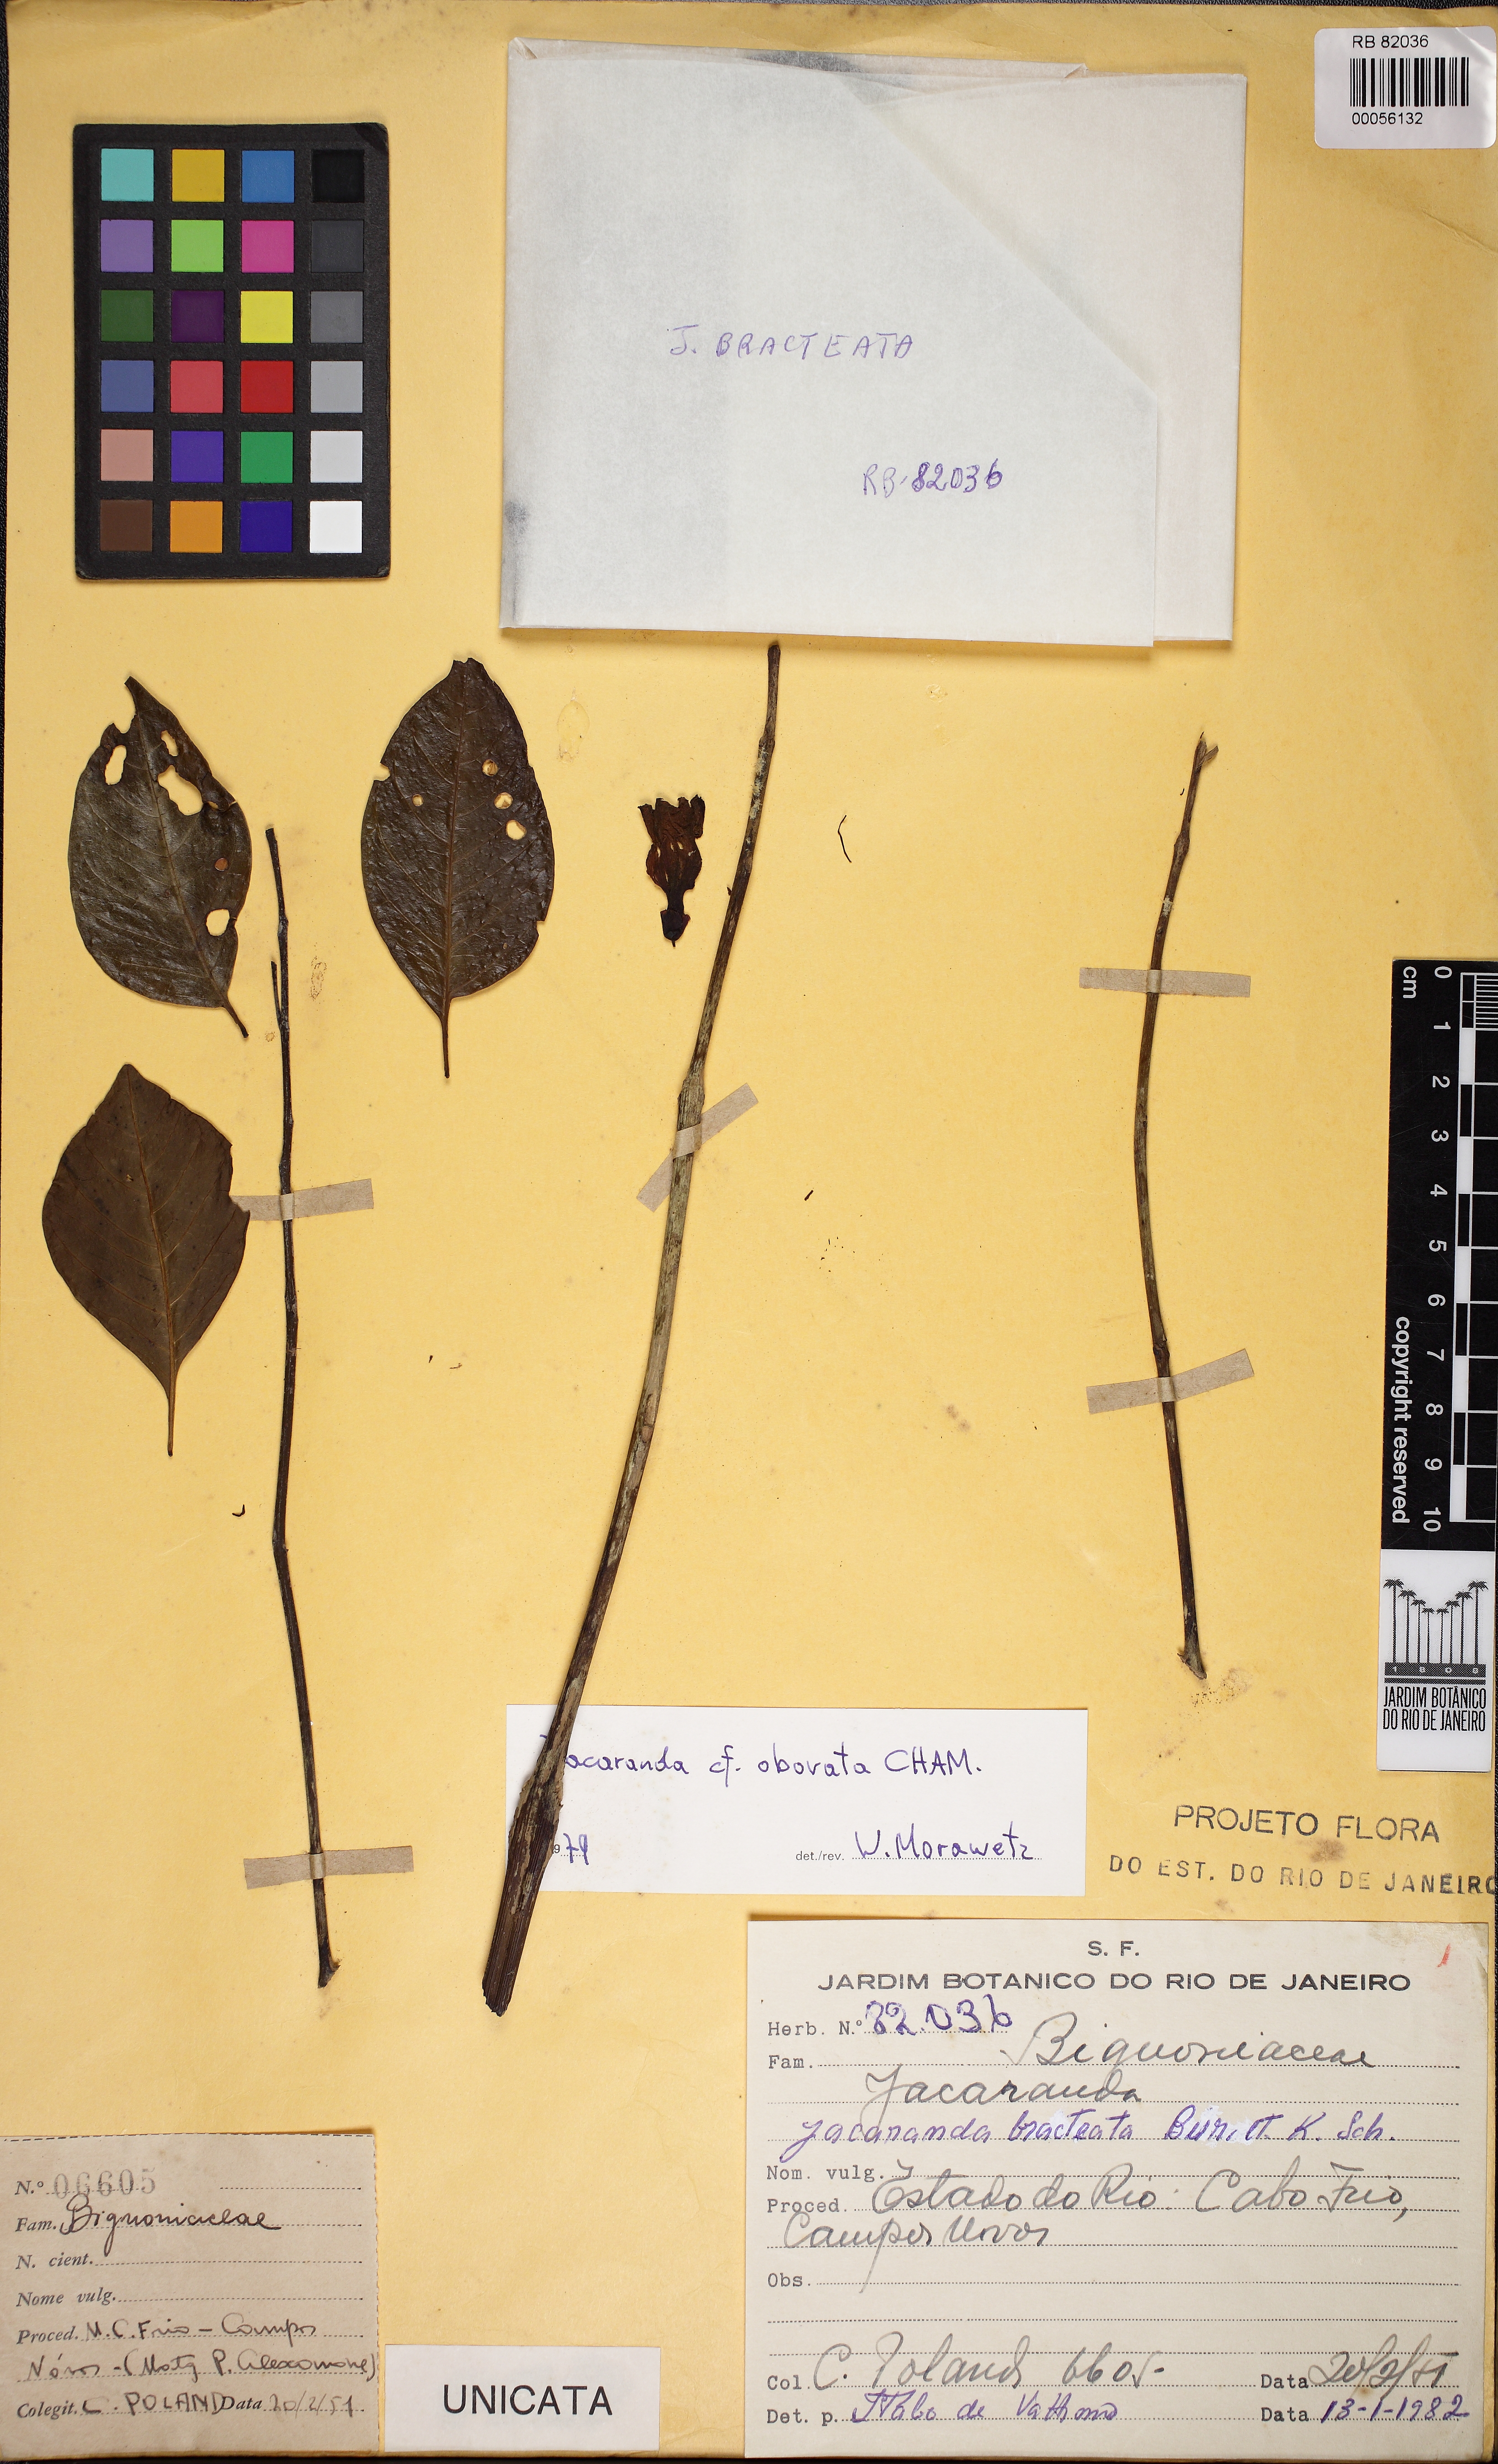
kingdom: Plantae
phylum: Tracheophyta
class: Magnoliopsida
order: Lamiales
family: Bignoniaceae
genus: Jacaranda
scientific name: Jacaranda bracteata
